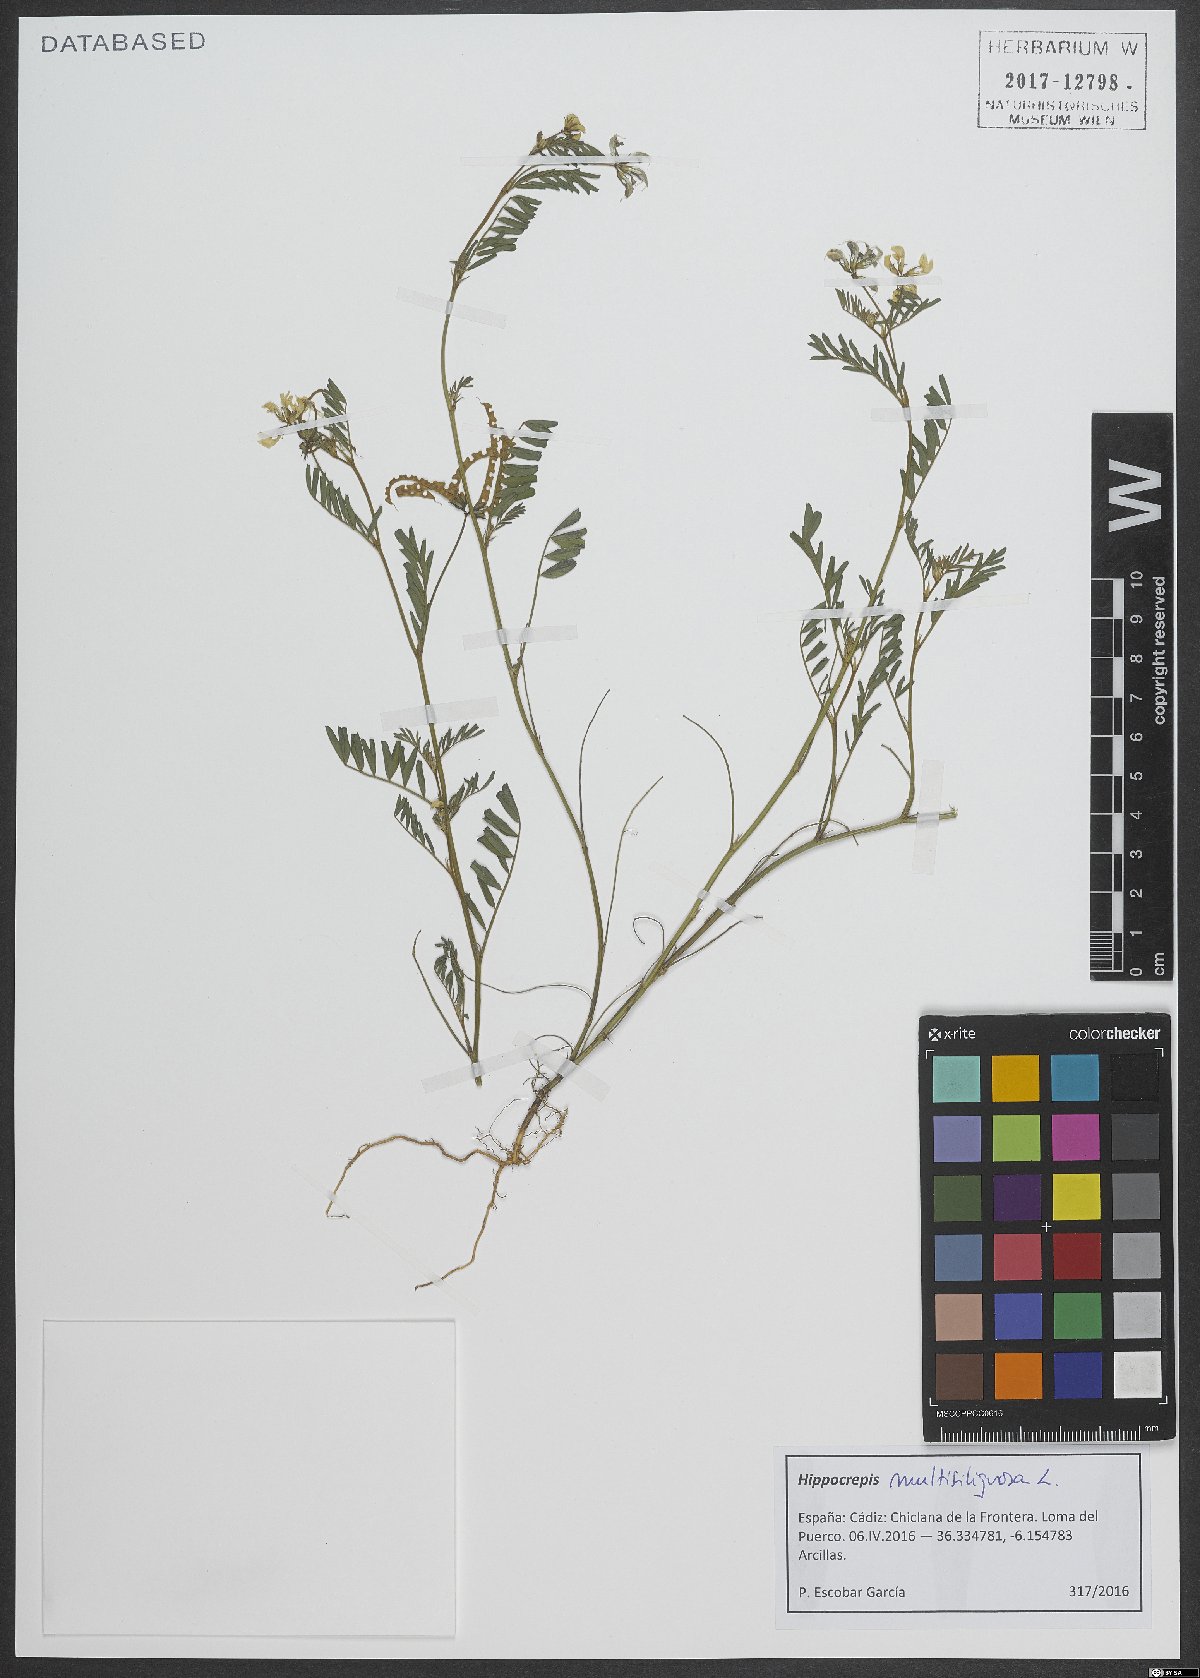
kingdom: Plantae
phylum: Tracheophyta
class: Magnoliopsida
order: Fabales
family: Fabaceae
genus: Hippocrepis
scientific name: Hippocrepis multisiliquosa
